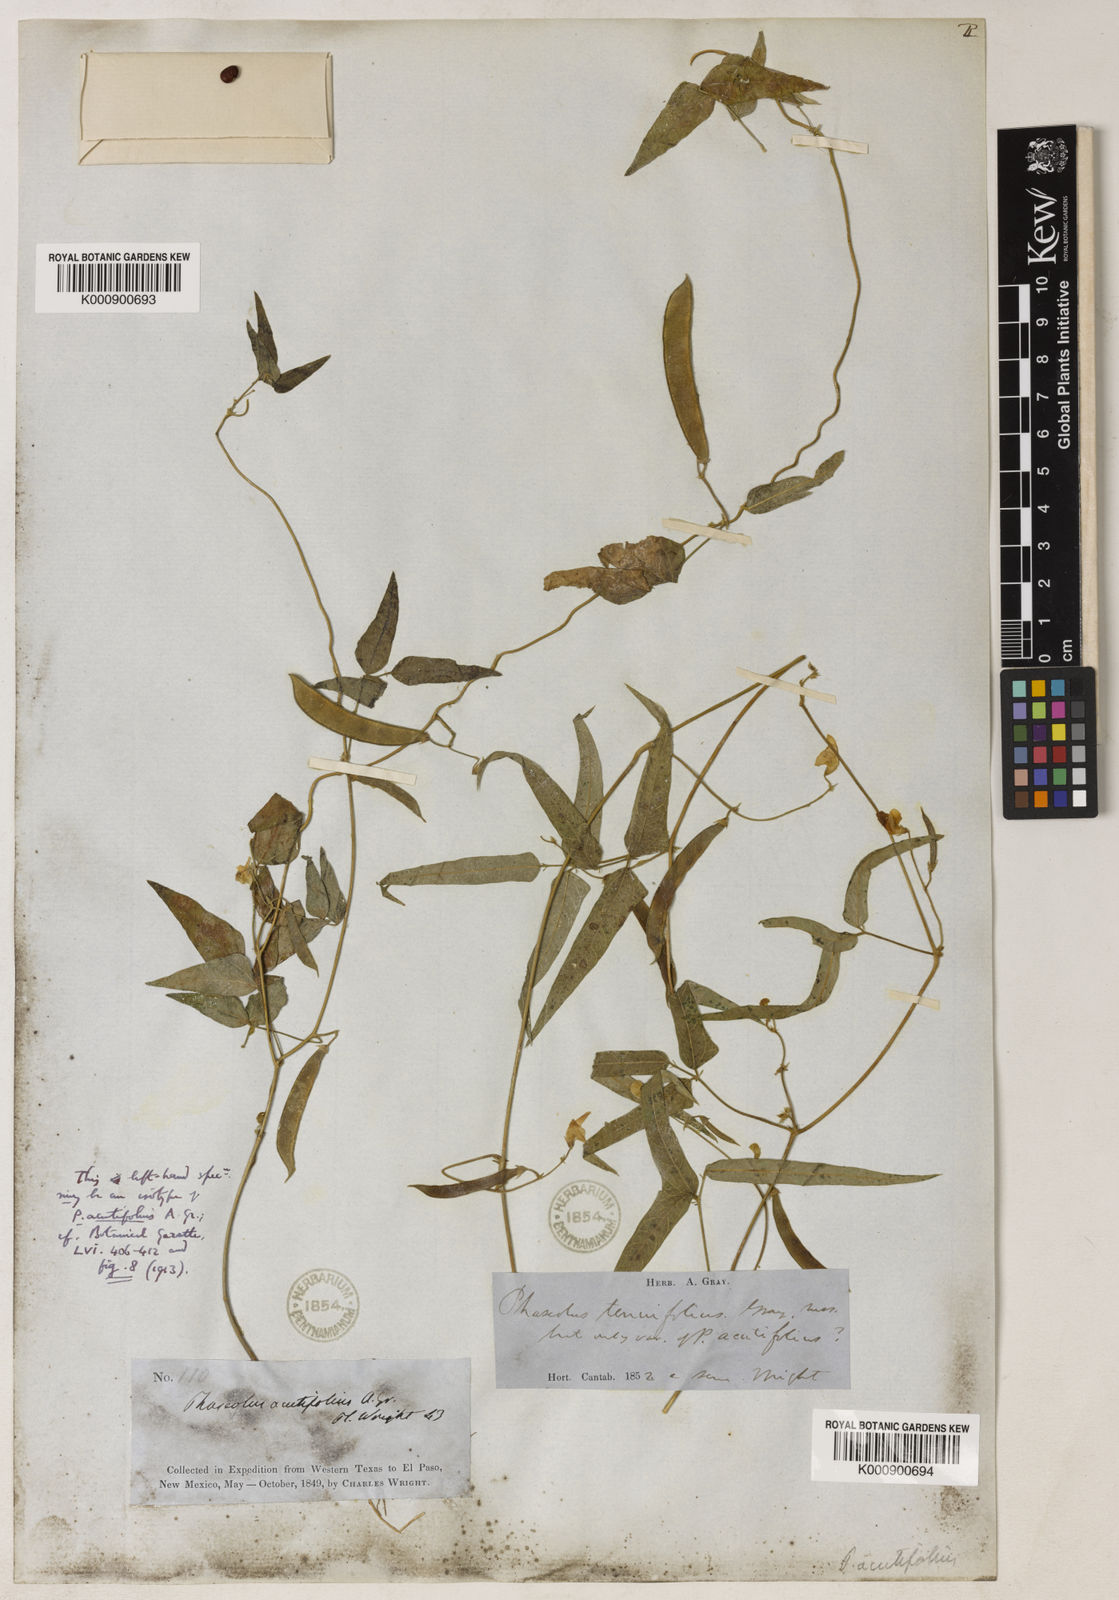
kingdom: Plantae
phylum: Tracheophyta
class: Magnoliopsida
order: Fabales
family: Fabaceae
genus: Phaseolus
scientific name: Phaseolus acutifolius
